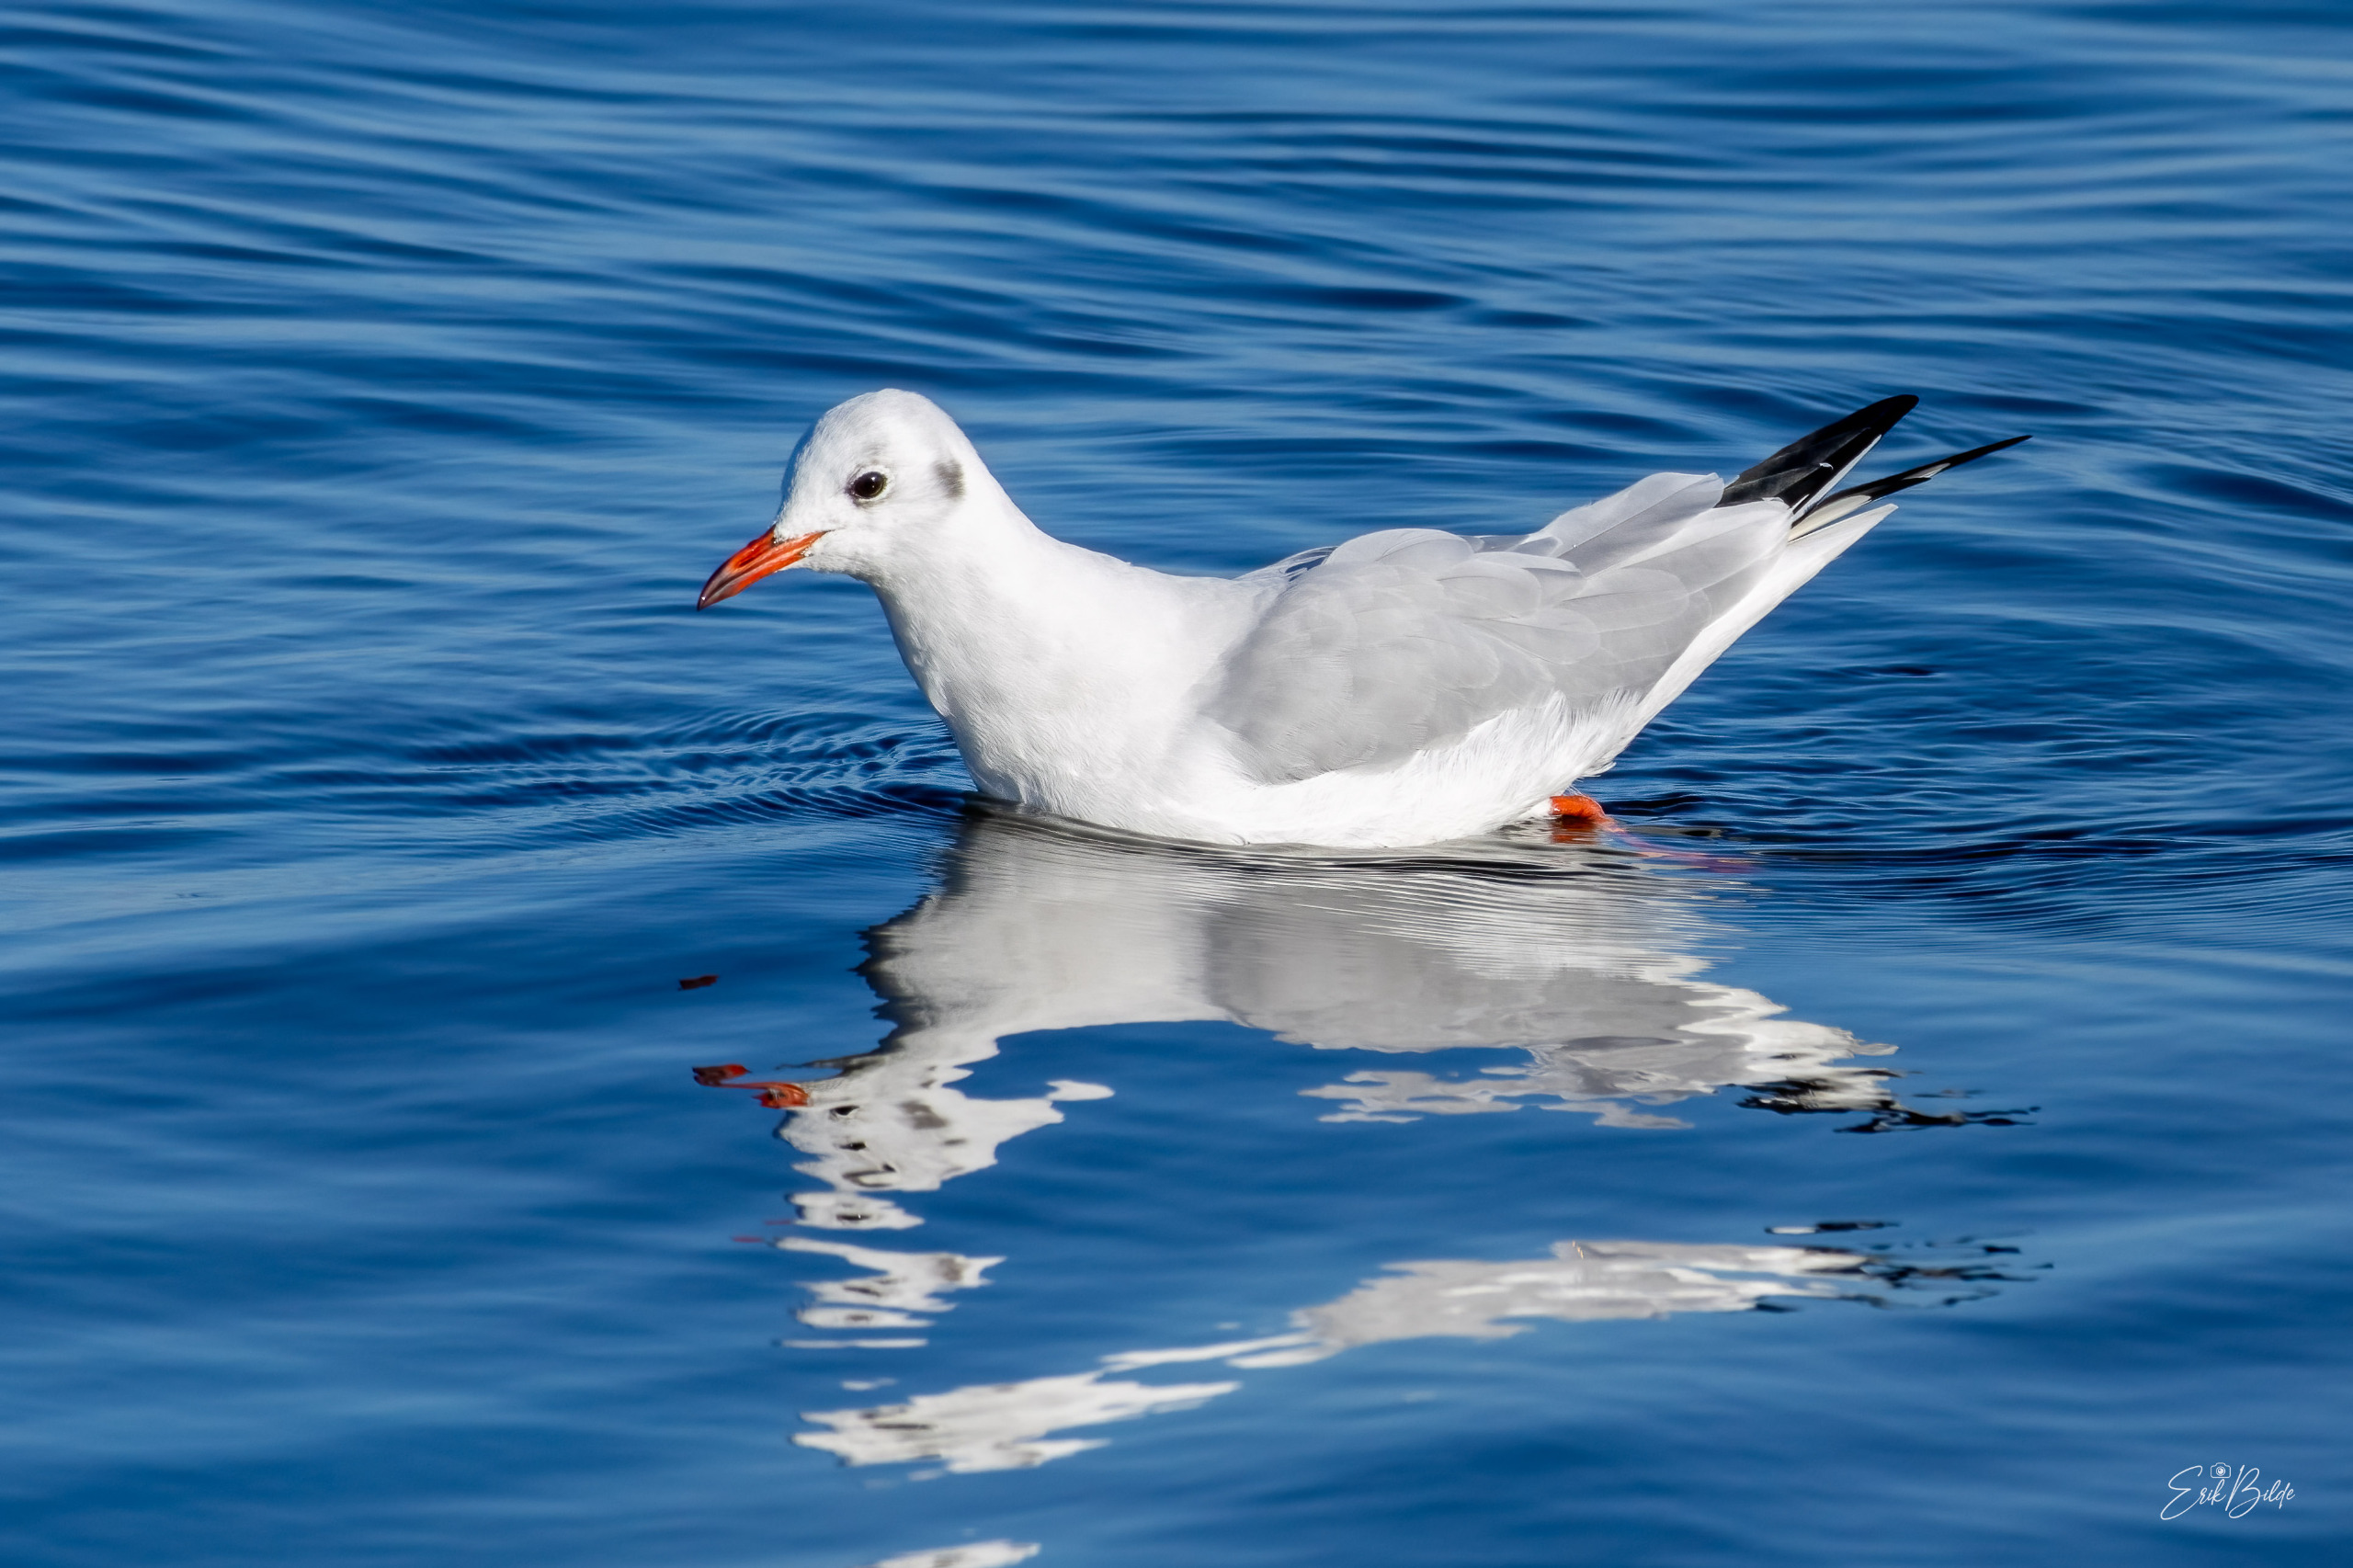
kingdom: Animalia
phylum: Chordata
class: Aves
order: Charadriiformes
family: Laridae
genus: Chroicocephalus
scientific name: Chroicocephalus ridibundus
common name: Hættemåge
